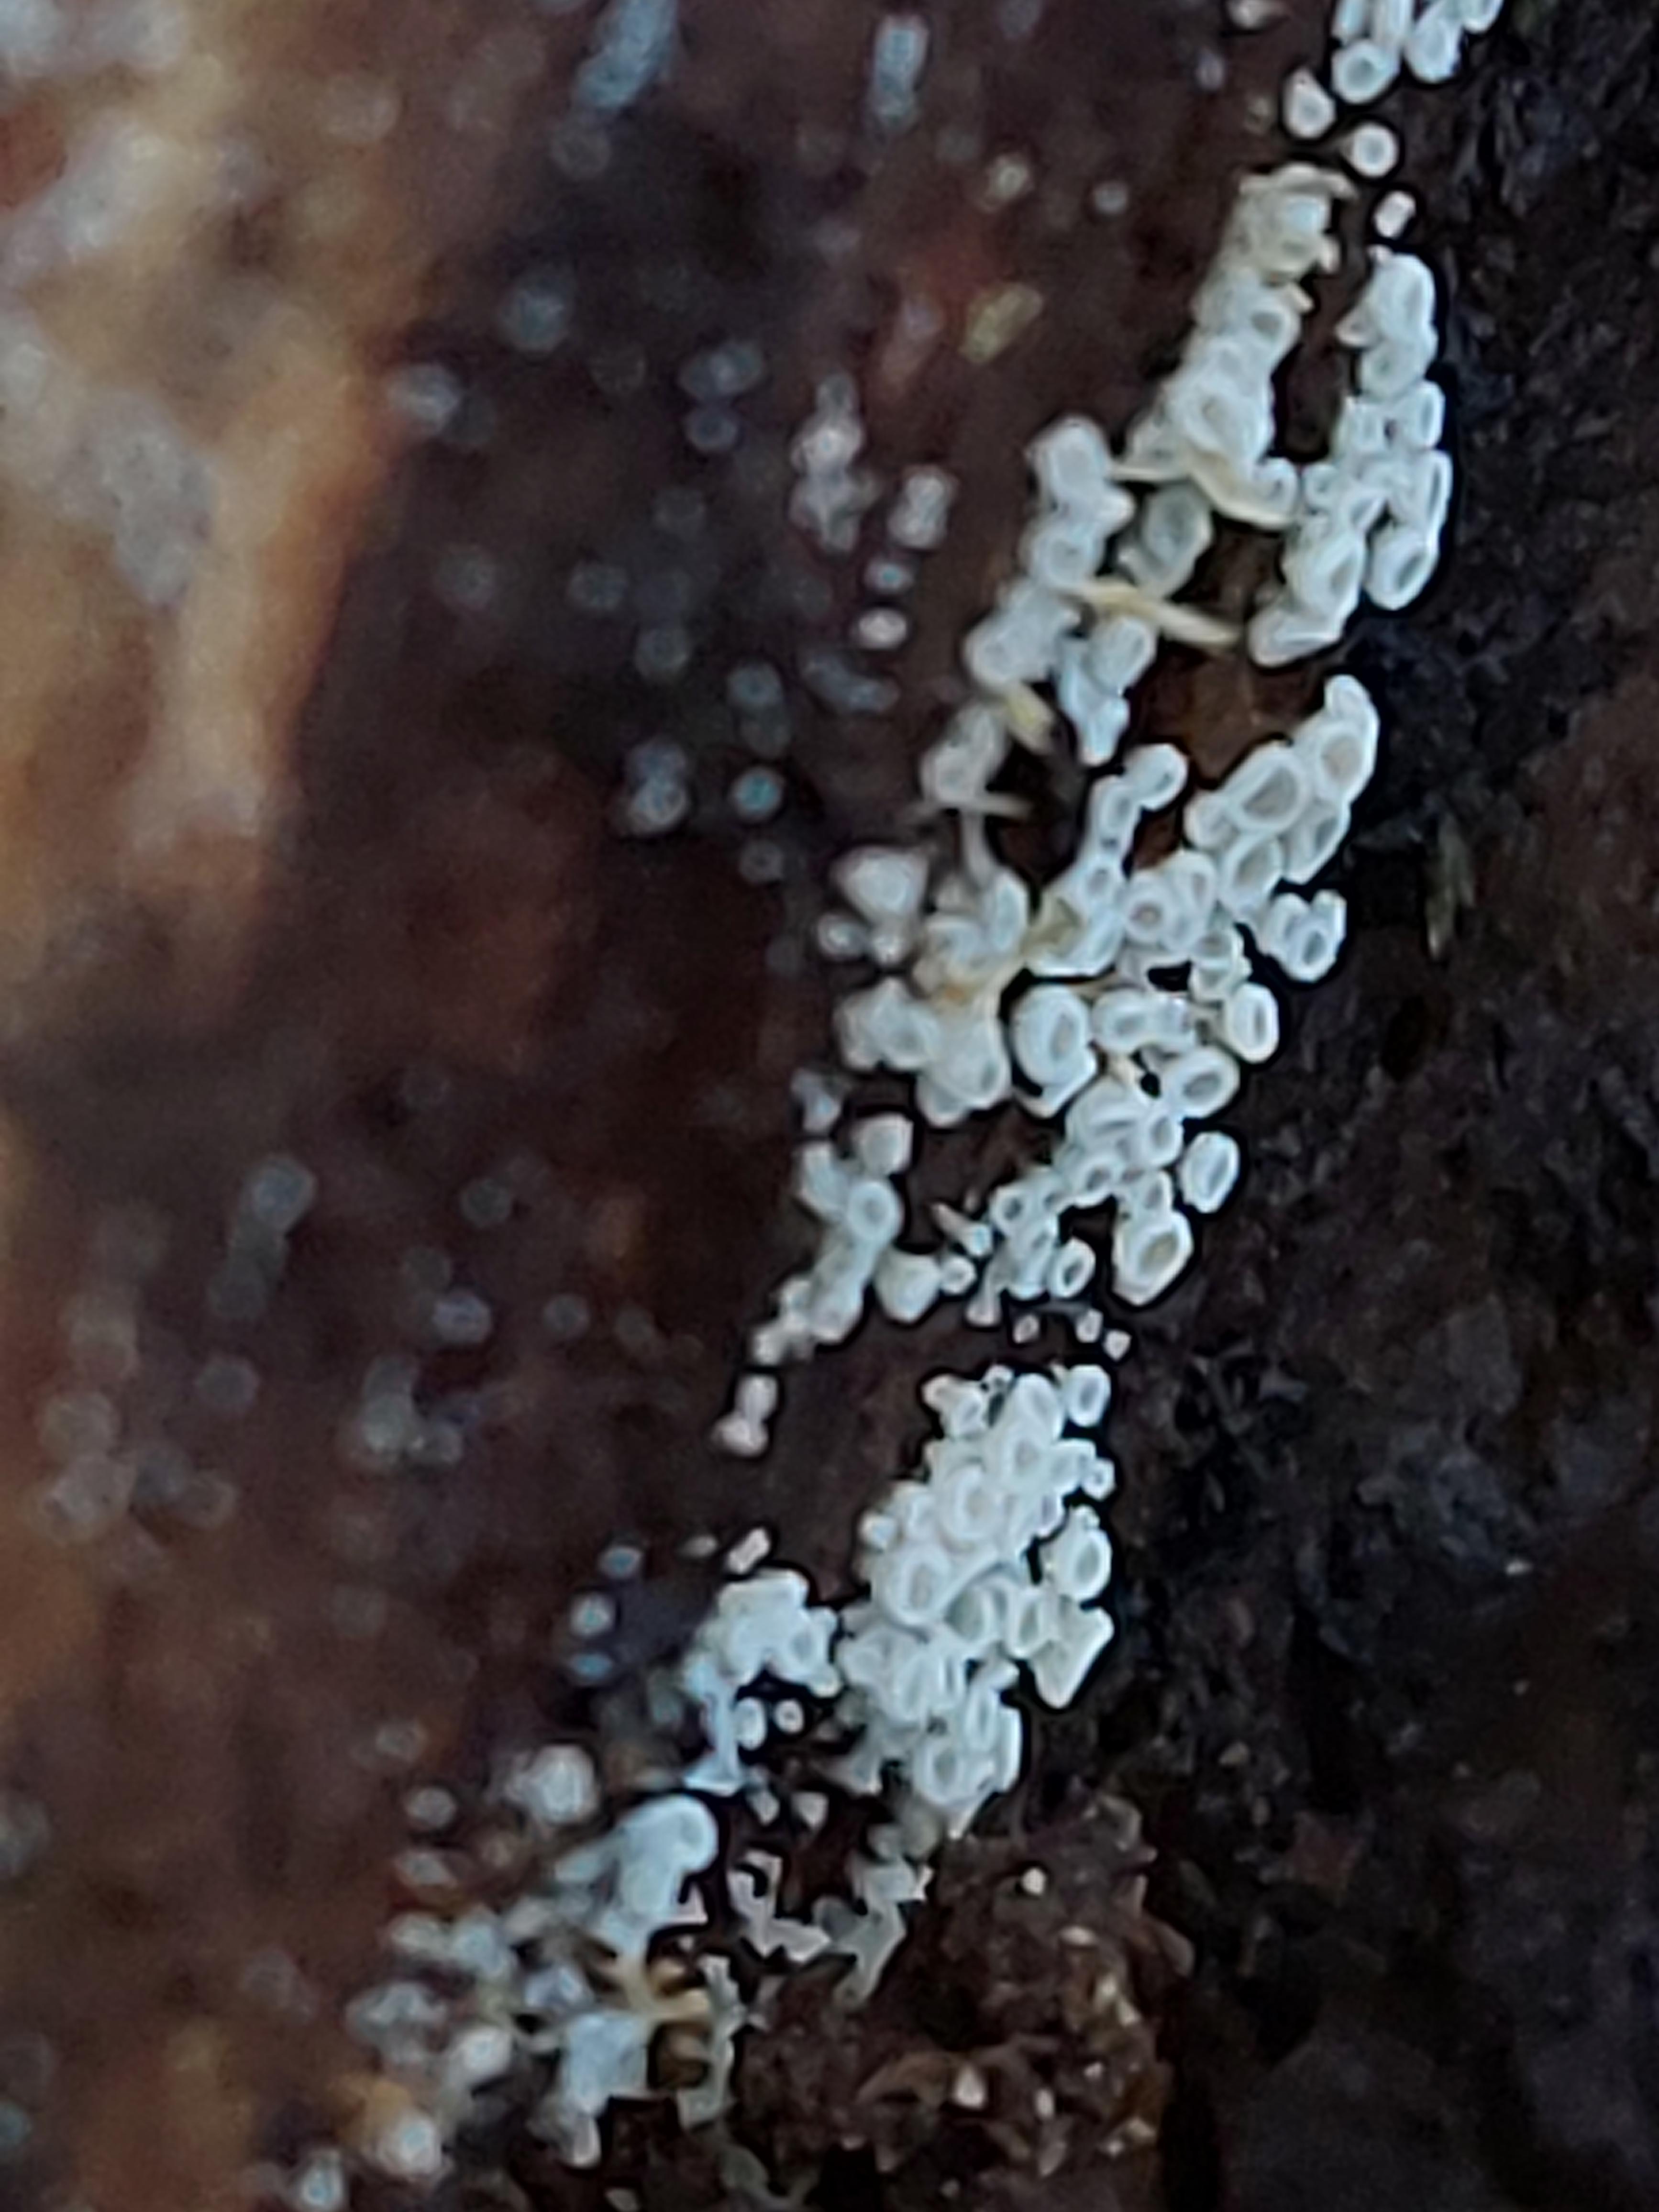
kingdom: Fungi
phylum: Ascomycota
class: Leotiomycetes
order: Helotiales
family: Lachnaceae
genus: Lachnum
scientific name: Lachnum
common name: frynseskive
